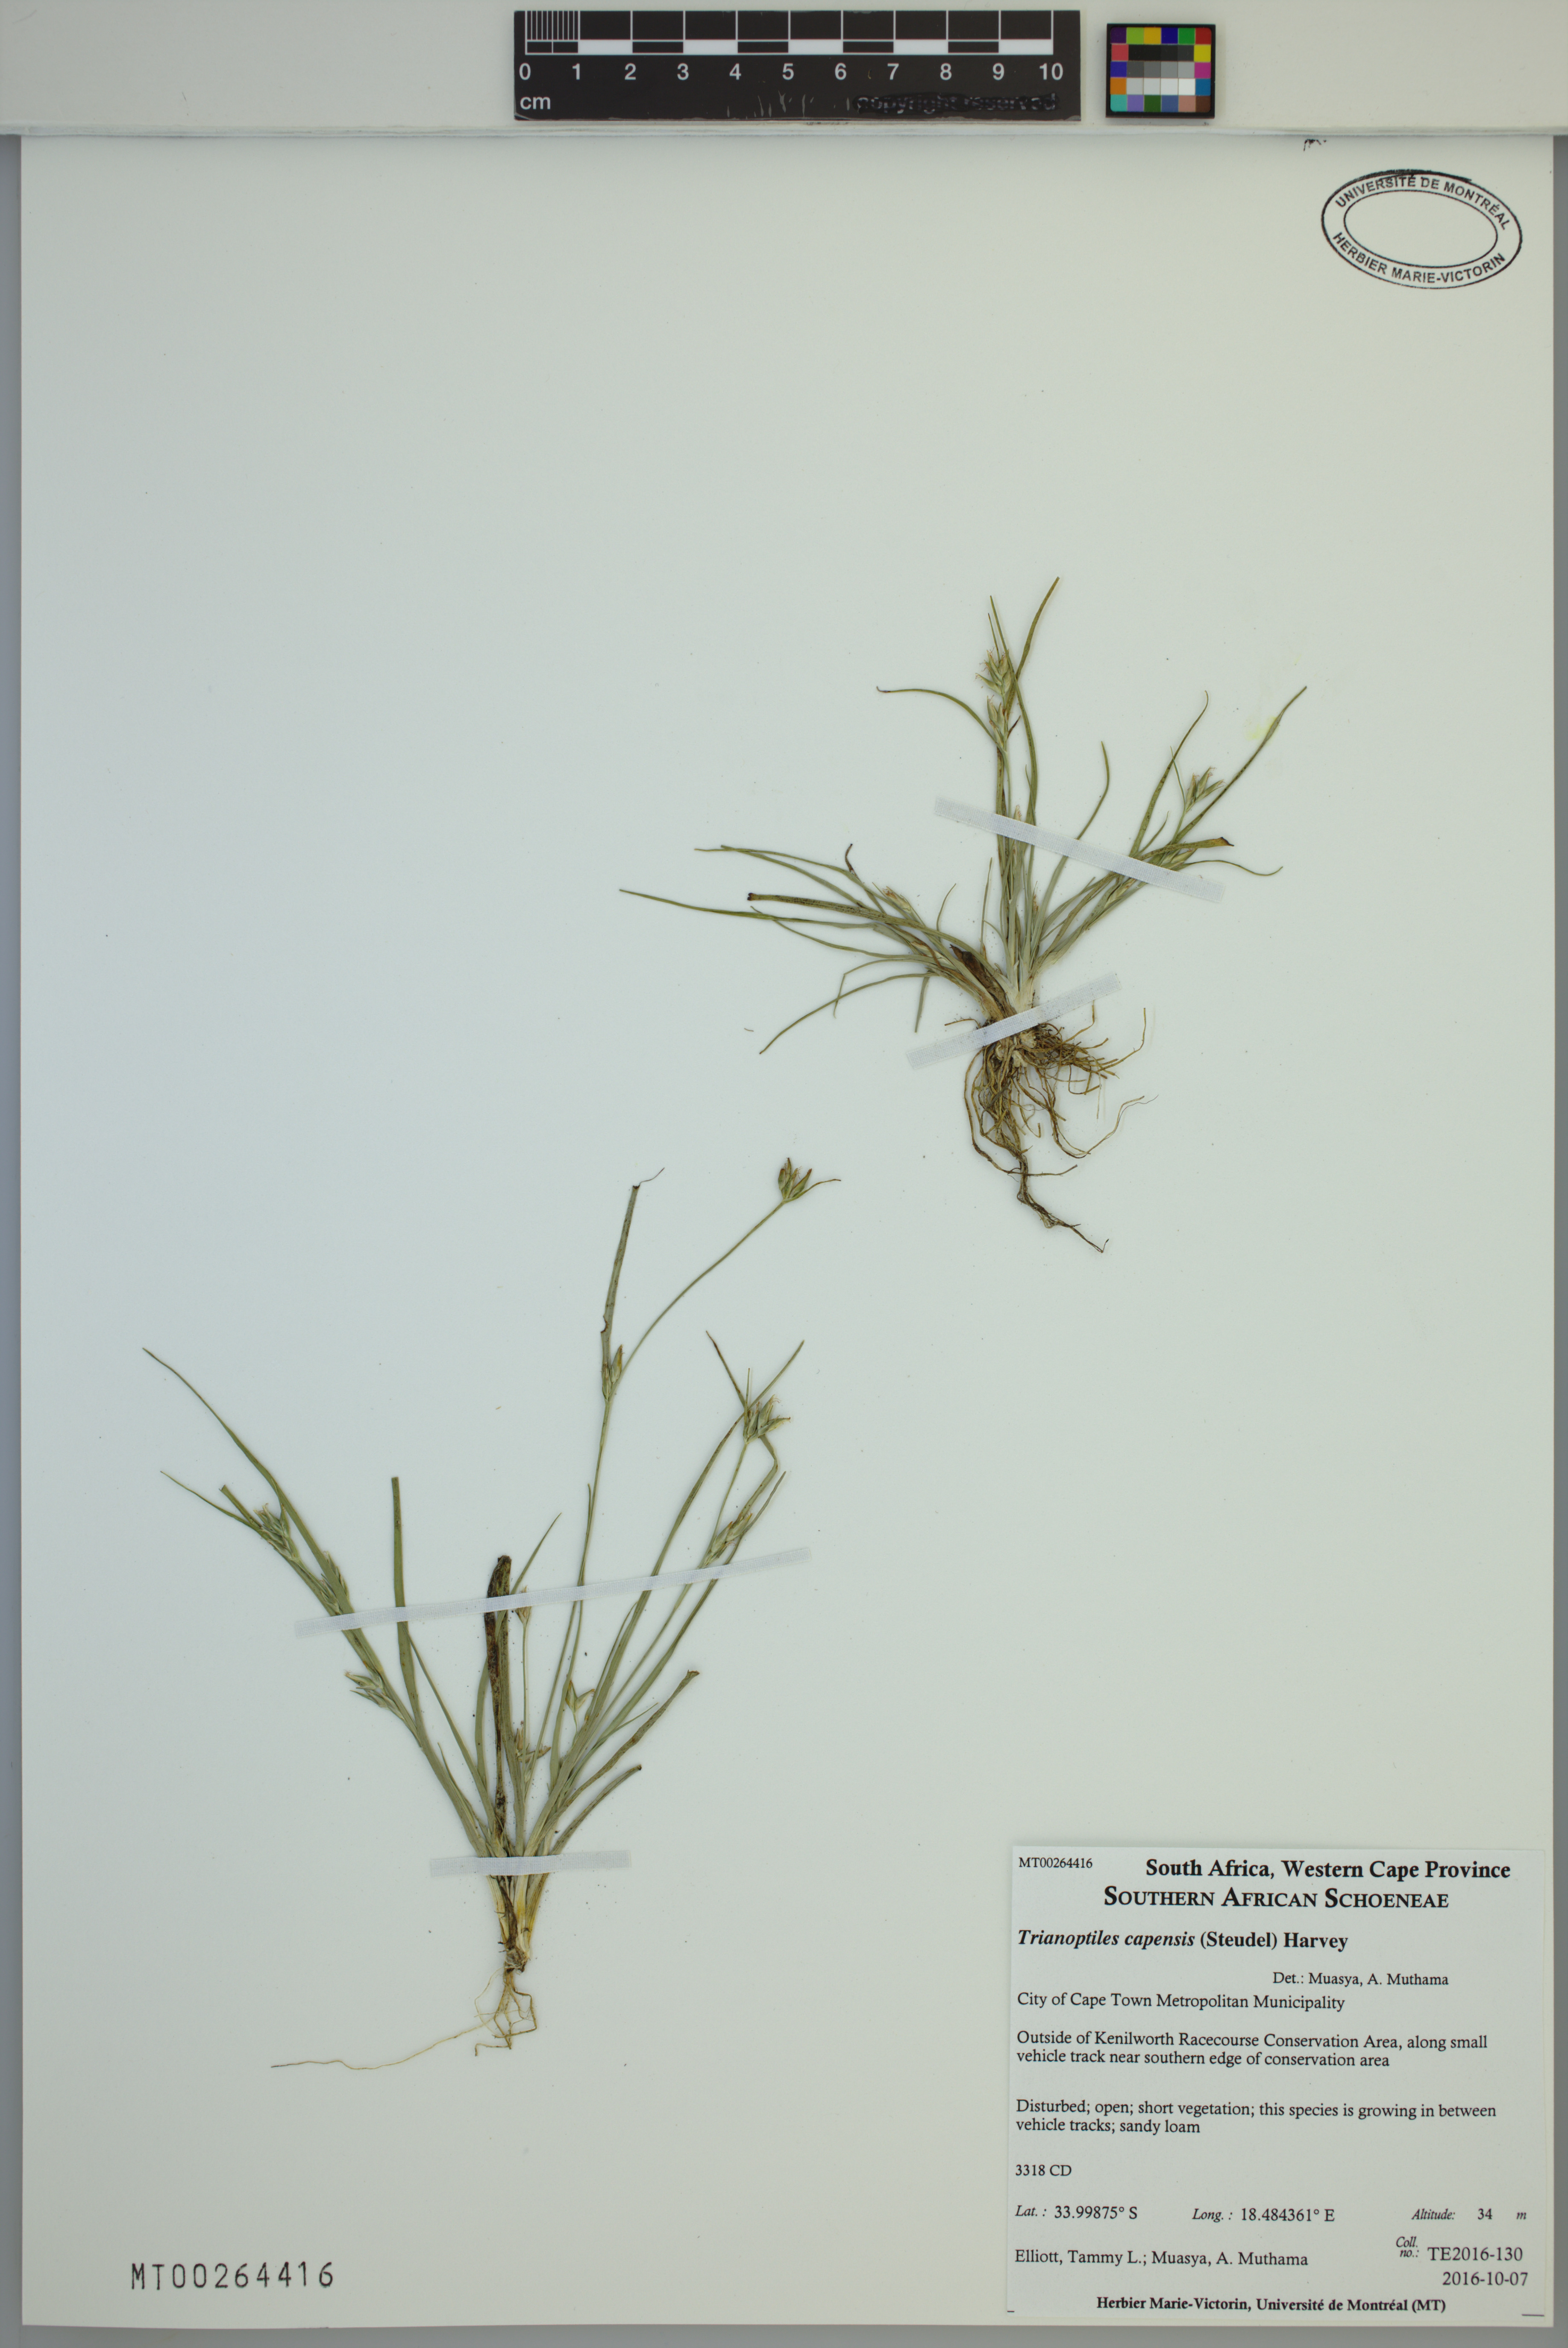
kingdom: Plantae
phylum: Tracheophyta
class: Liliopsida
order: Poales
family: Cyperaceae
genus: Trianoptiles
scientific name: Trianoptiles capensis
